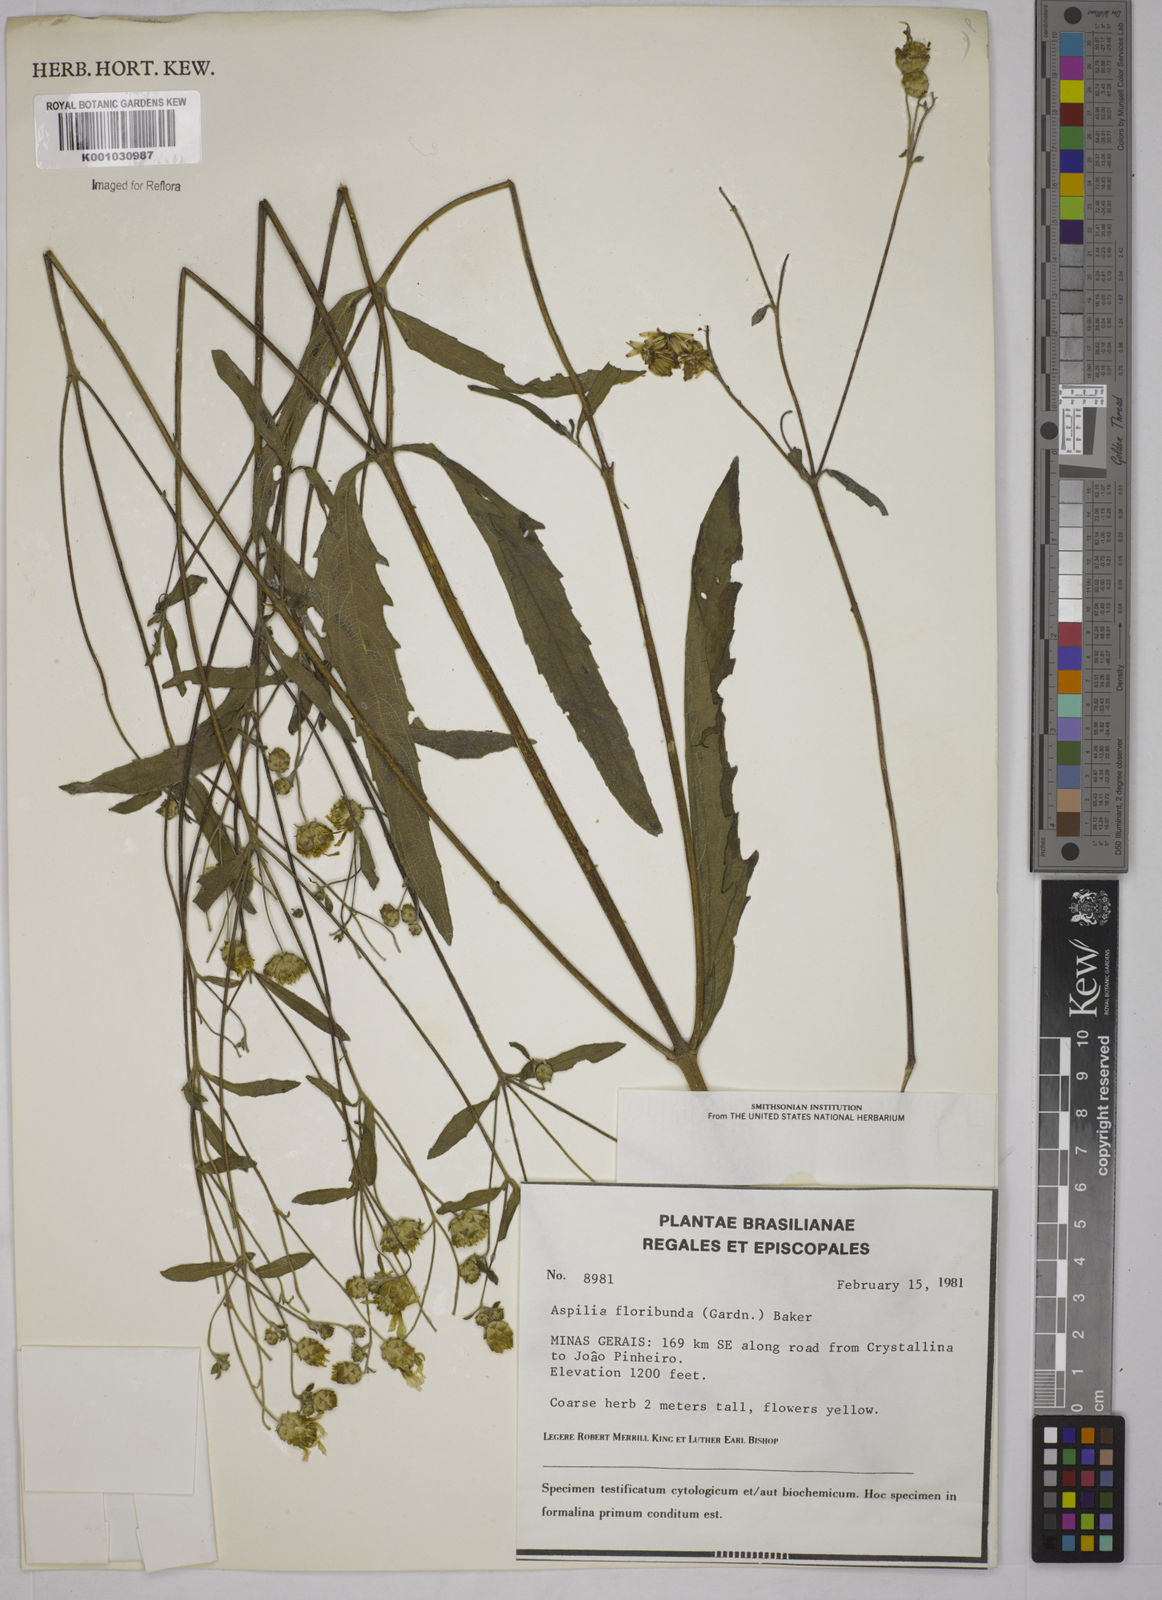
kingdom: Plantae
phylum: Tracheophyta
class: Magnoliopsida
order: Asterales
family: Asteraceae
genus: Wedelia
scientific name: Wedelia floribunda
